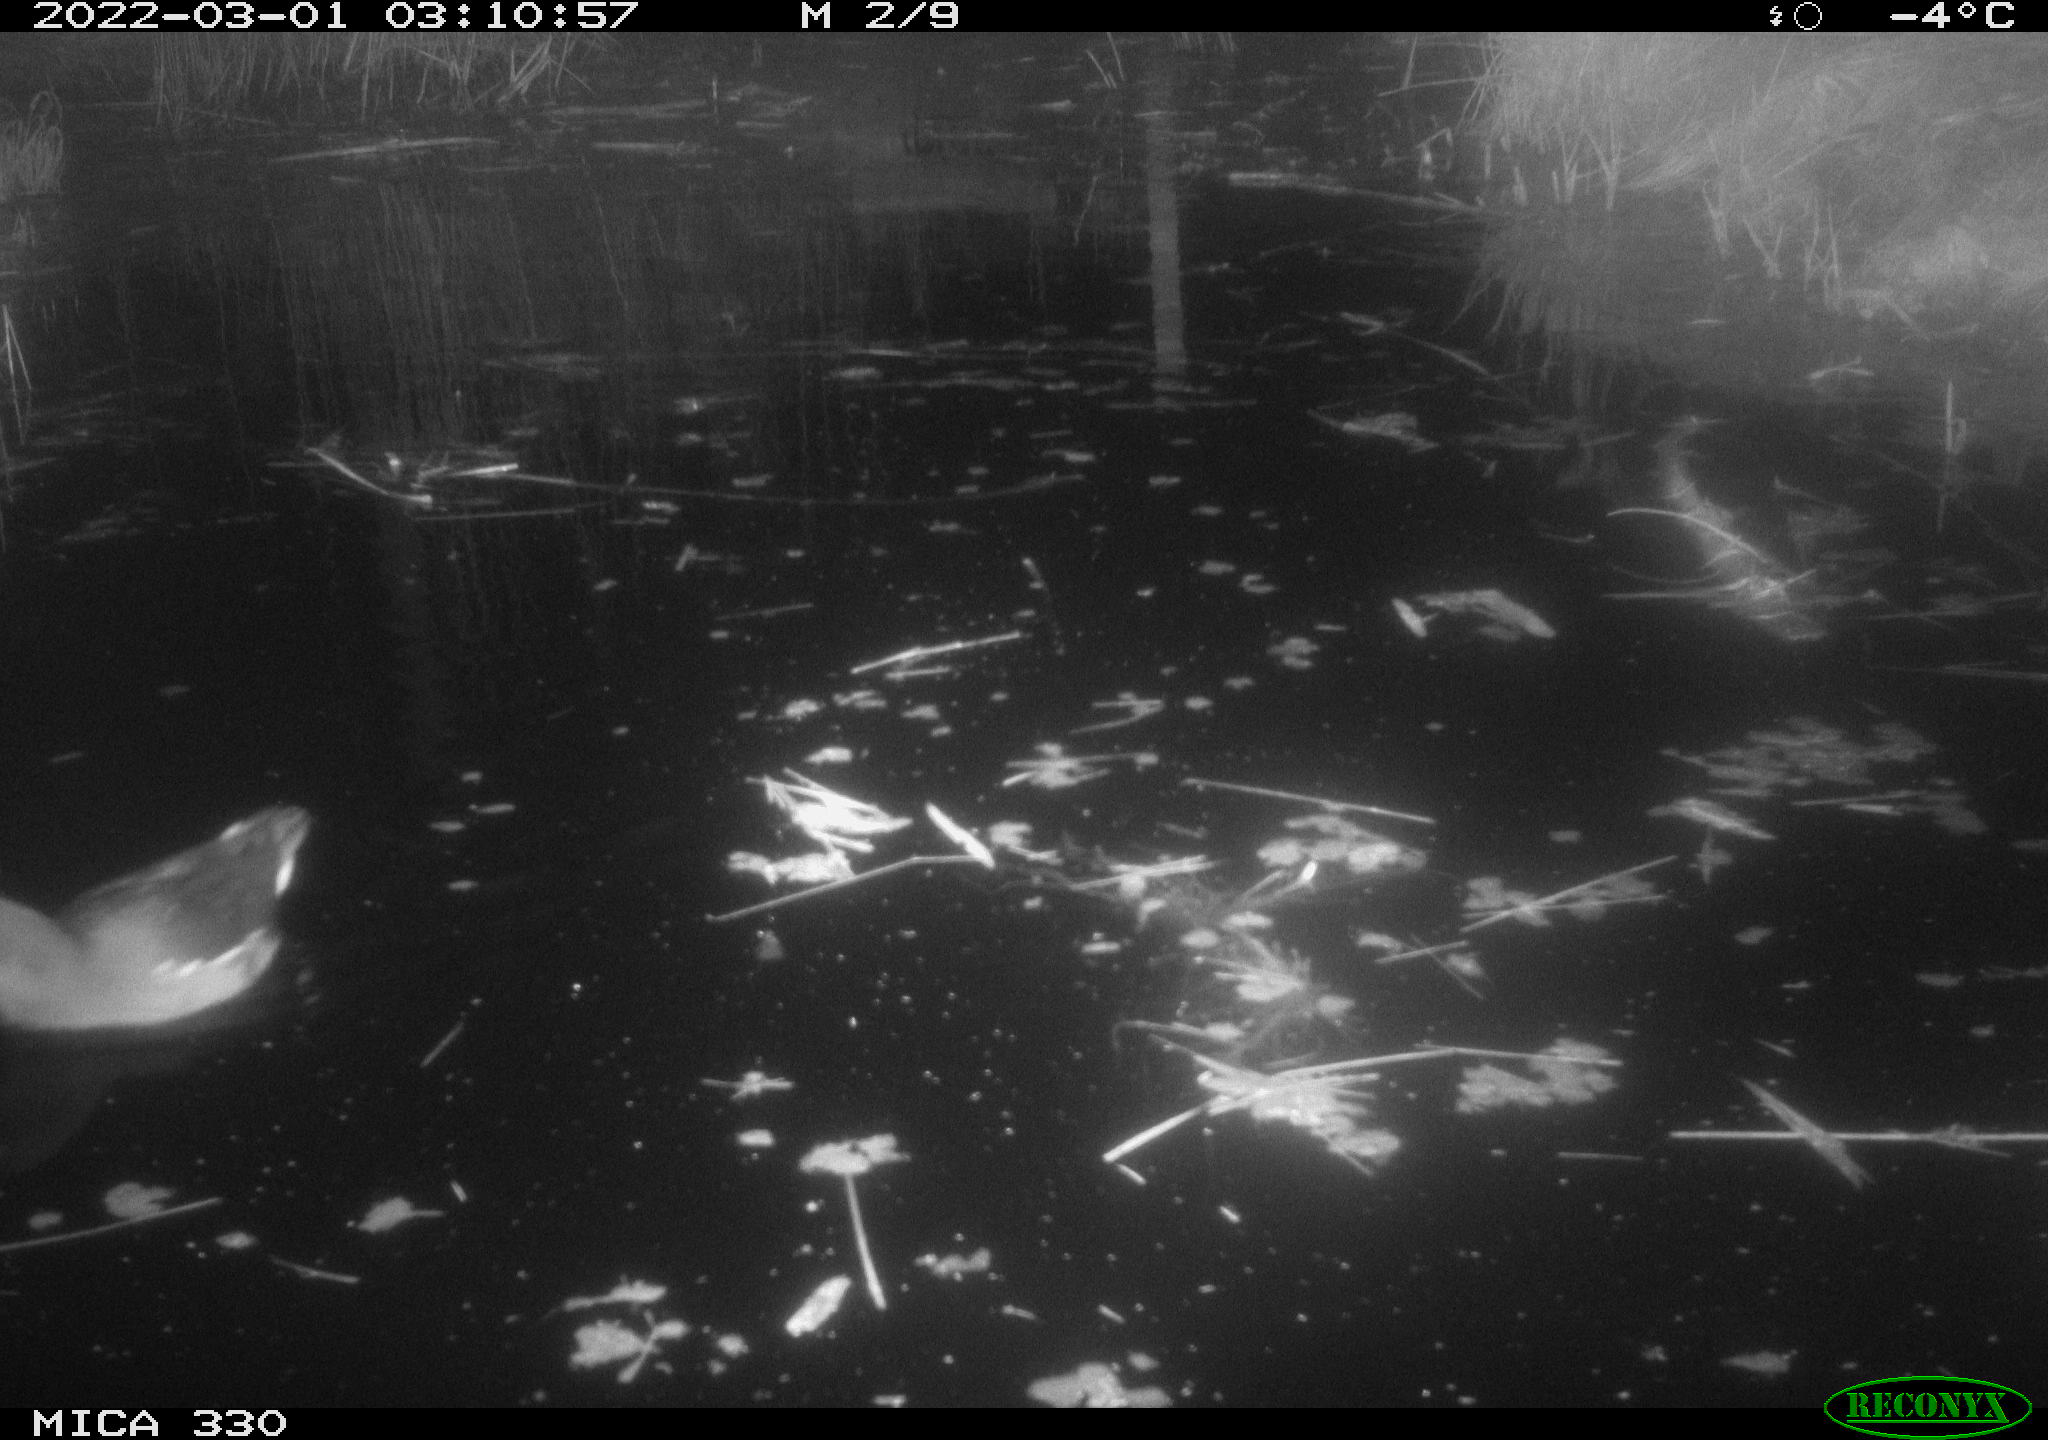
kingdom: Animalia
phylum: Chordata
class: Aves
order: Gruiformes
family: Rallidae
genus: Gallinula
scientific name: Gallinula chloropus
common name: Common moorhen
